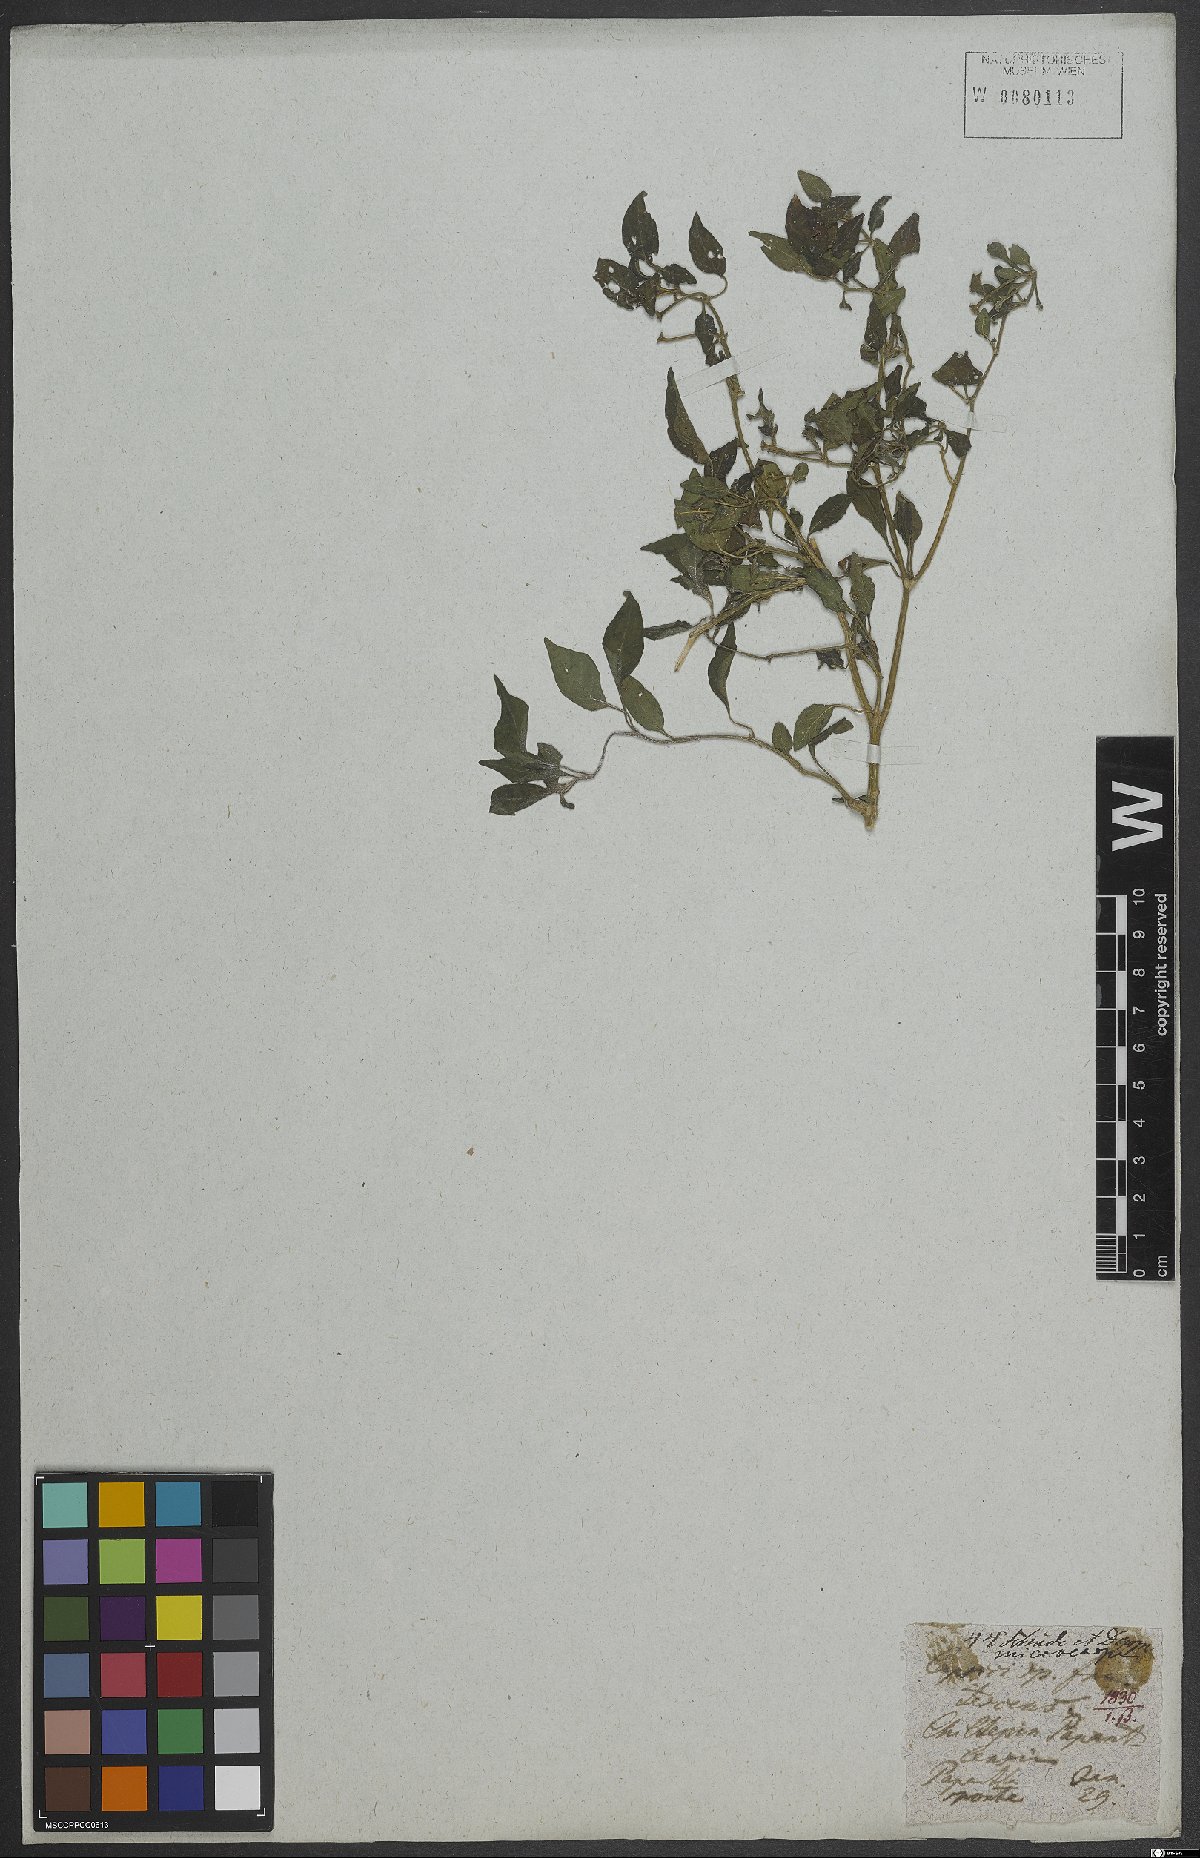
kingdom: Plantae
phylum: Tracheophyta
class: Magnoliopsida
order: Solanales
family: Solanaceae
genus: Capsicum
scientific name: Capsicum baccatum
